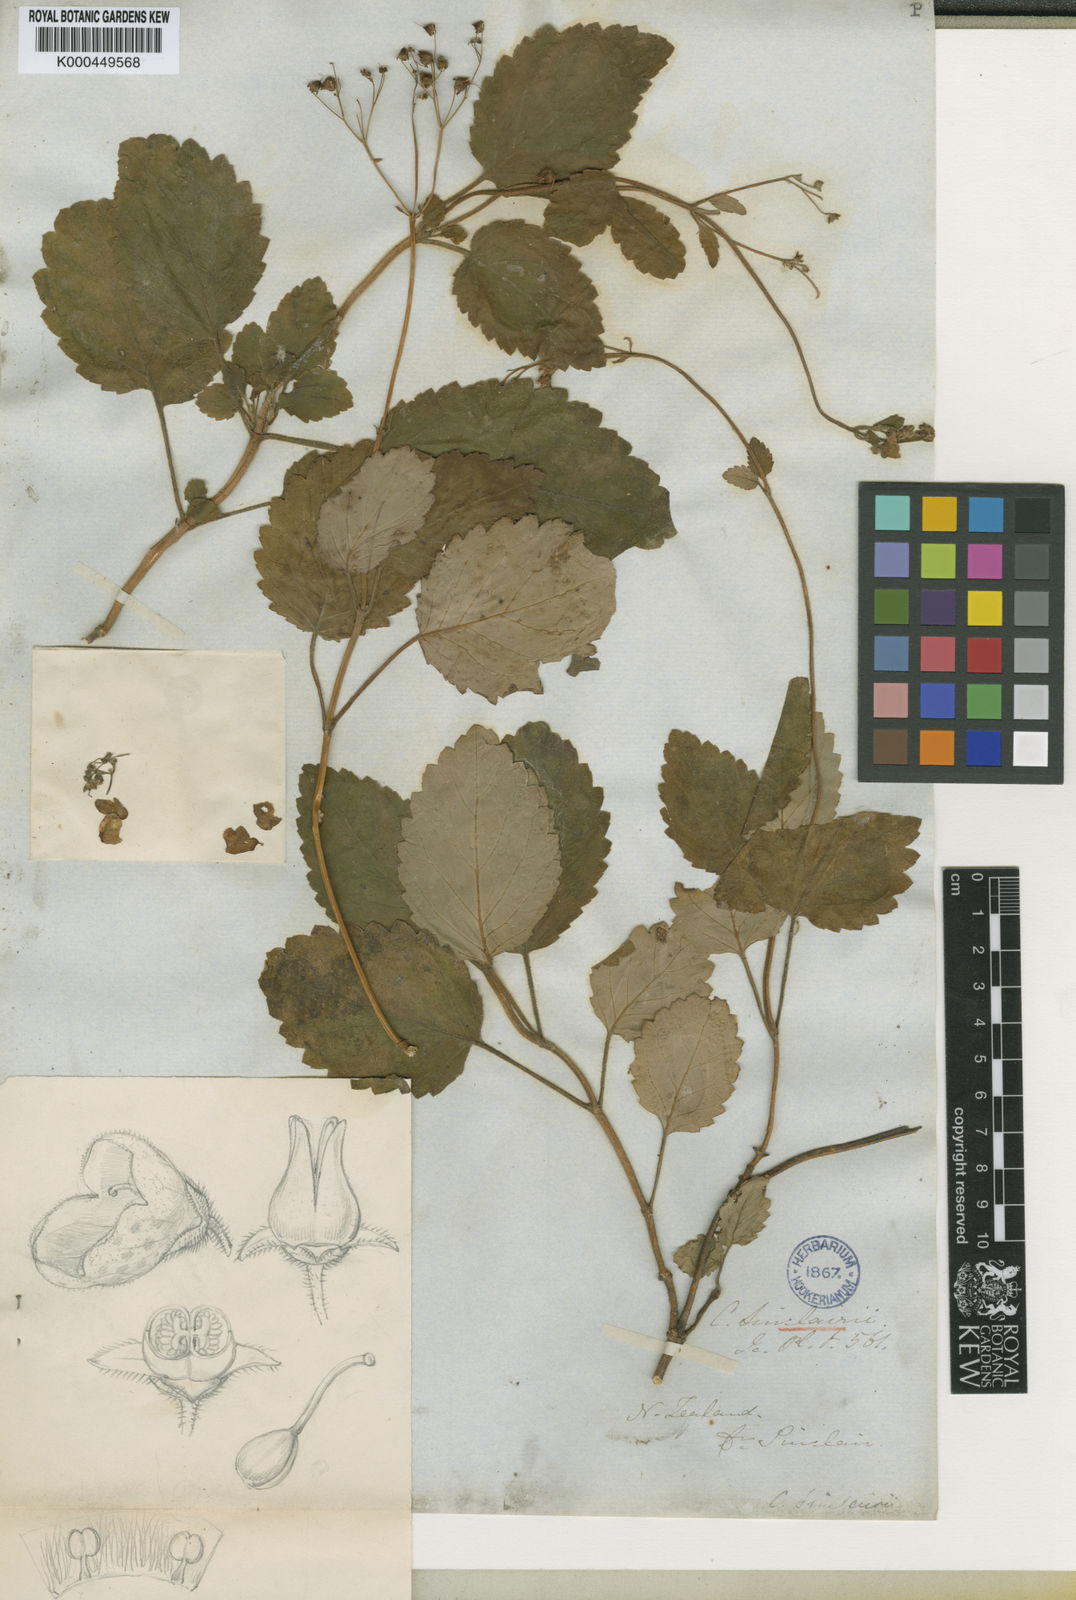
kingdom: Plantae
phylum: Tracheophyta
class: Magnoliopsida
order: Lamiales
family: Calceolariaceae
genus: Jovellana
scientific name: Jovellana sinclairii
